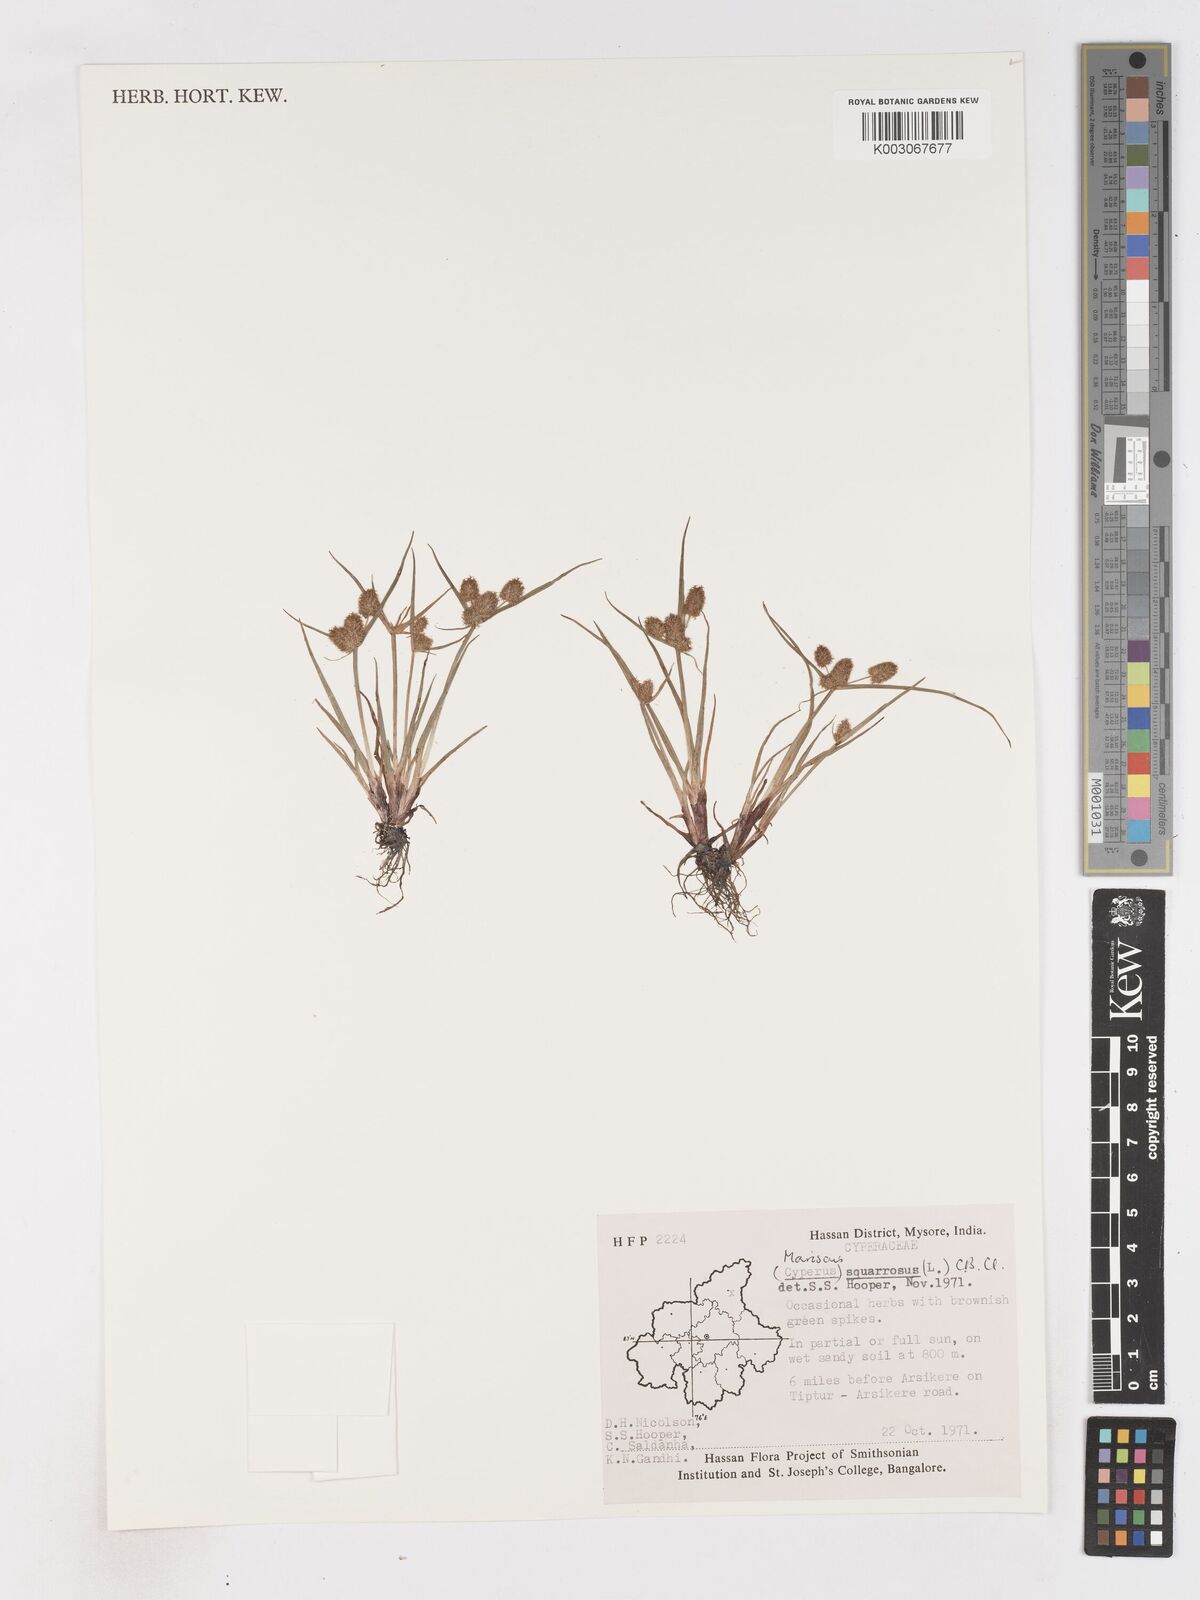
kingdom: Plantae
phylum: Tracheophyta
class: Liliopsida
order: Poales
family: Cyperaceae
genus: Cyperus
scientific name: Cyperus squarrosus
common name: Awned cyperus
